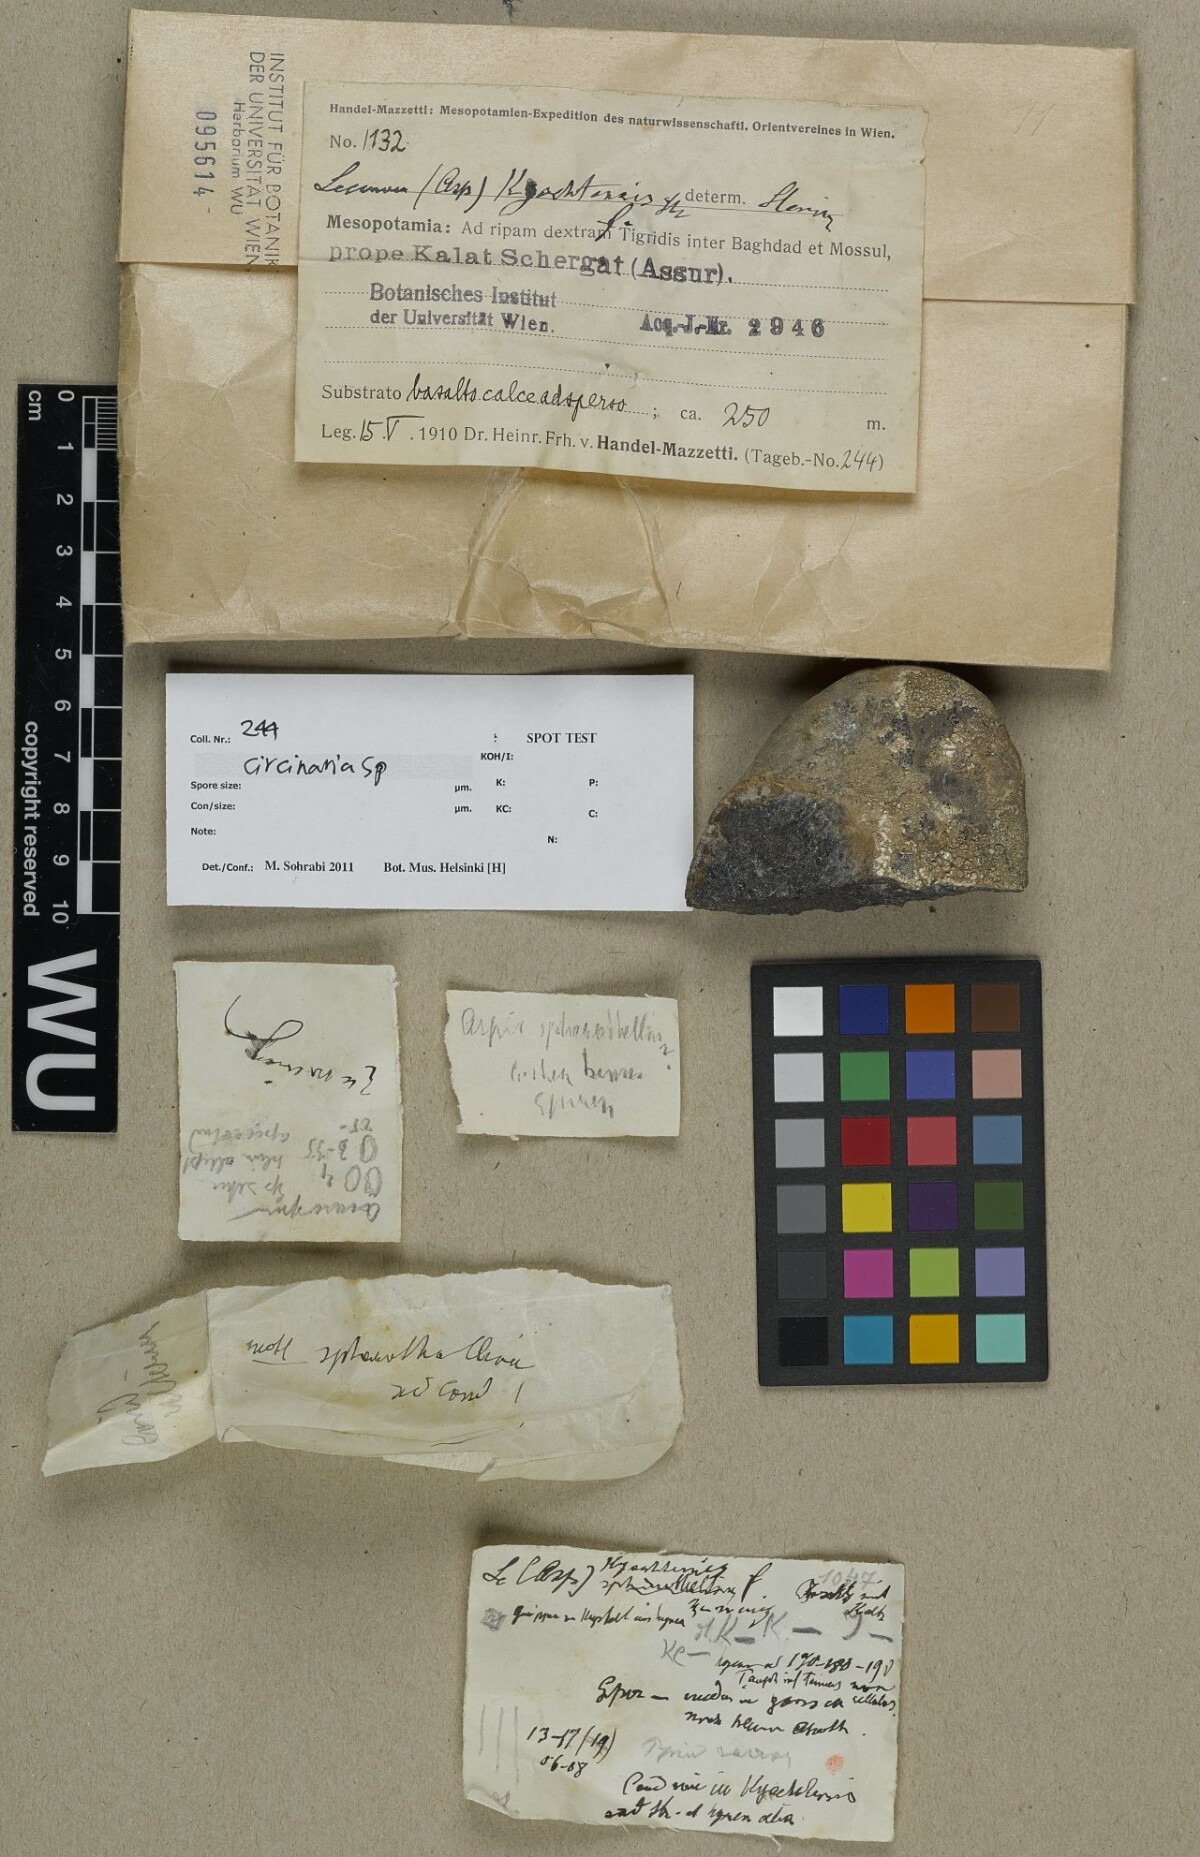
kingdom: Fungi
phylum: Ascomycota
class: Lecanoromycetes
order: Pertusariales
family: Megasporaceae
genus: Circinaria
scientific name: Circinaria
